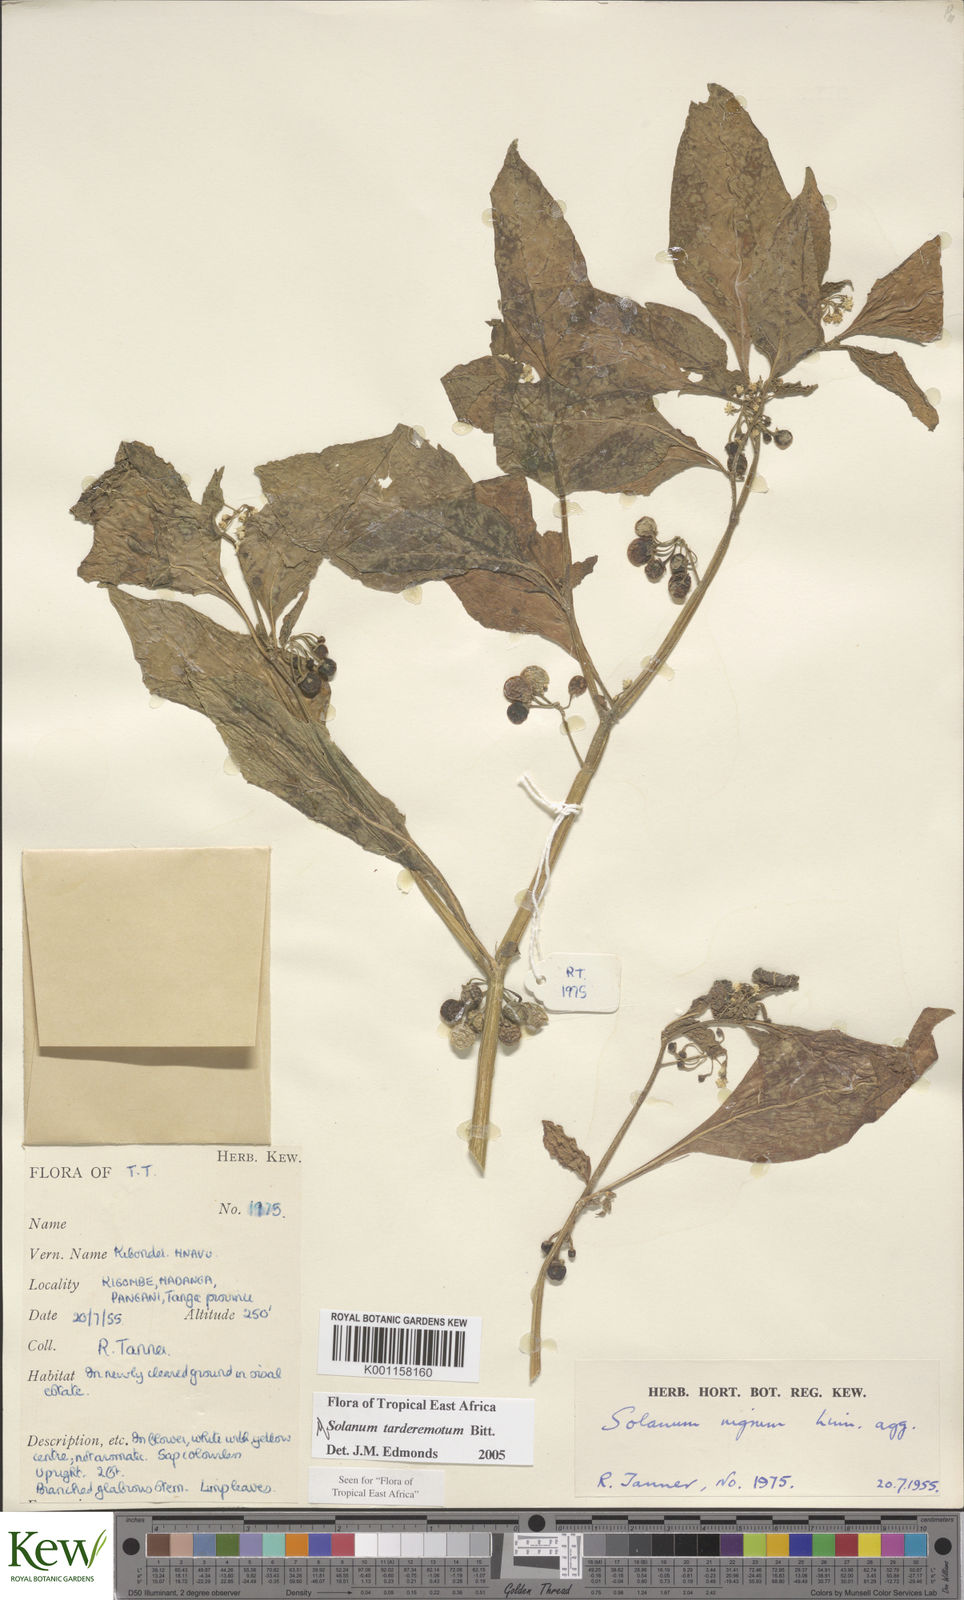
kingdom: Plantae
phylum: Tracheophyta
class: Magnoliopsida
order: Solanales
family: Solanaceae
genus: Solanum
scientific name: Solanum tarderemotum
